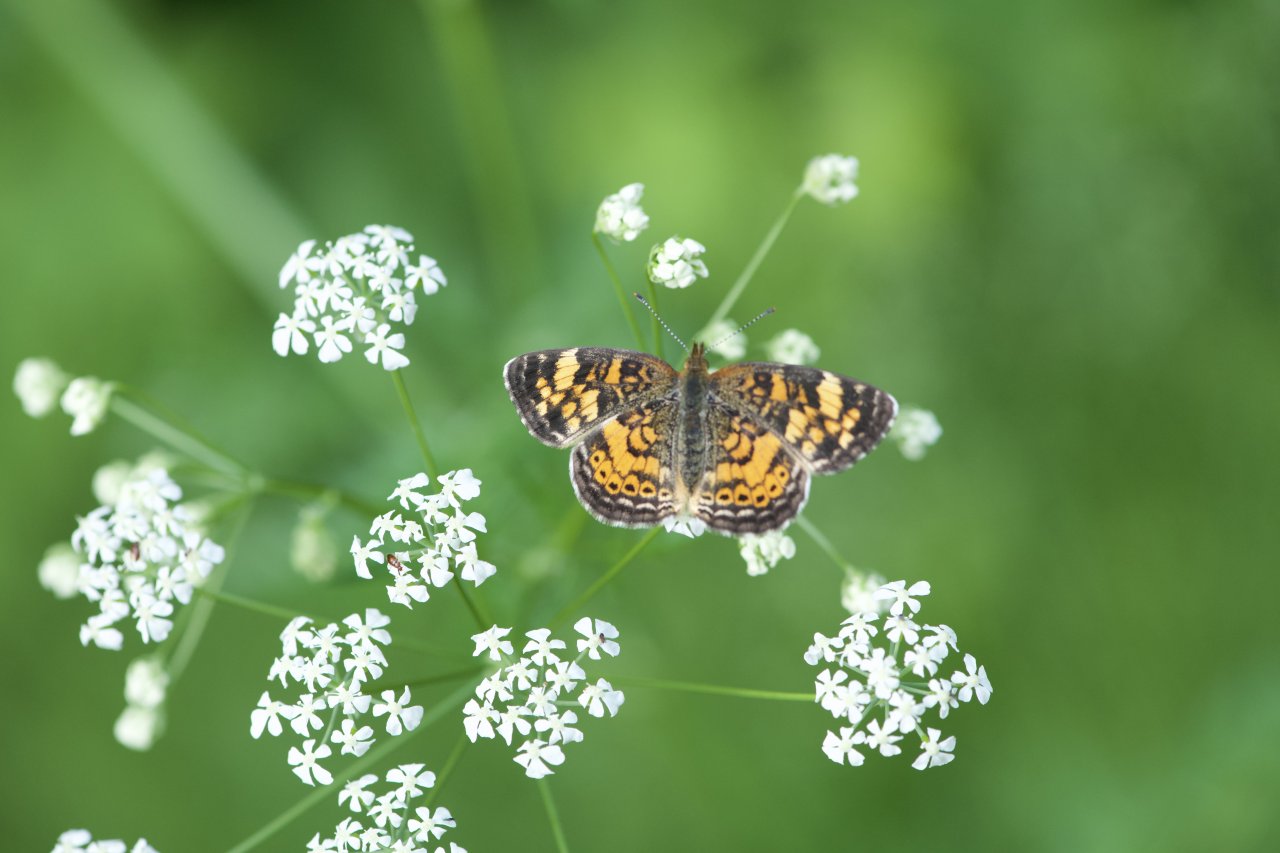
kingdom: Animalia
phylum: Arthropoda
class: Insecta
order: Lepidoptera
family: Nymphalidae
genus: Phyciodes
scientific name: Phyciodes tharos
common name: Northern Crescent
